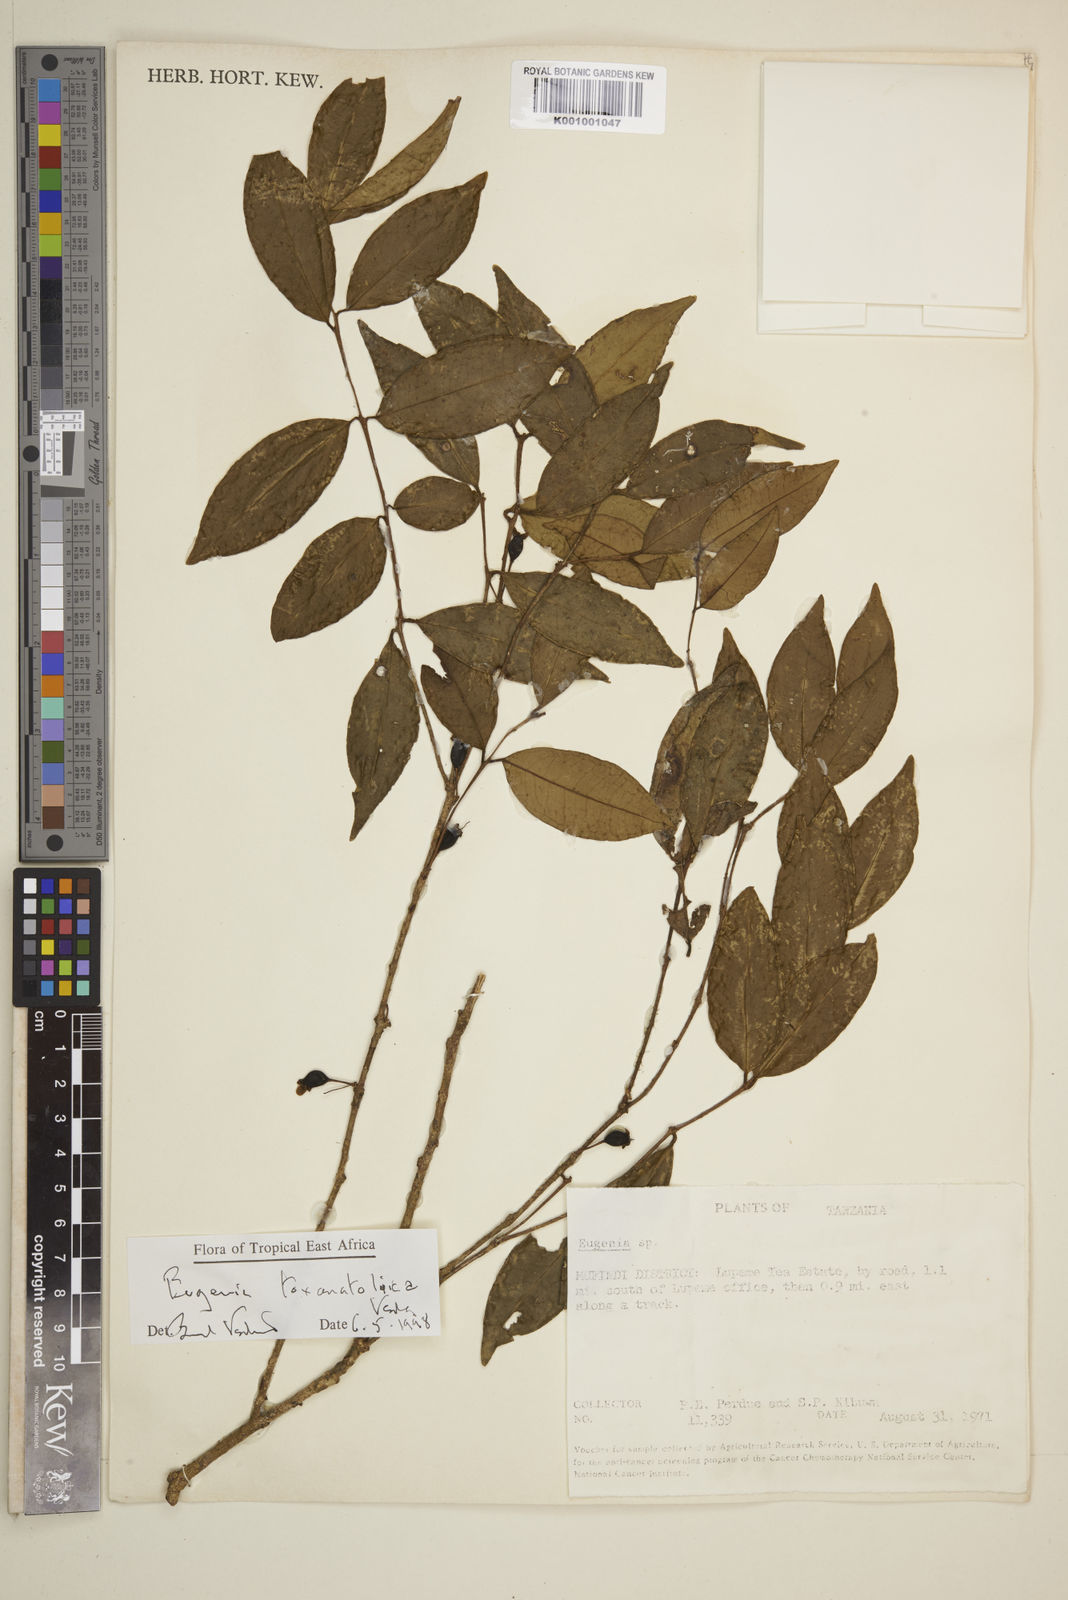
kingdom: Plantae
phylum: Tracheophyta
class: Magnoliopsida
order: Myrtales
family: Myrtaceae
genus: Eugenia
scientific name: Eugenia toxanatolica
